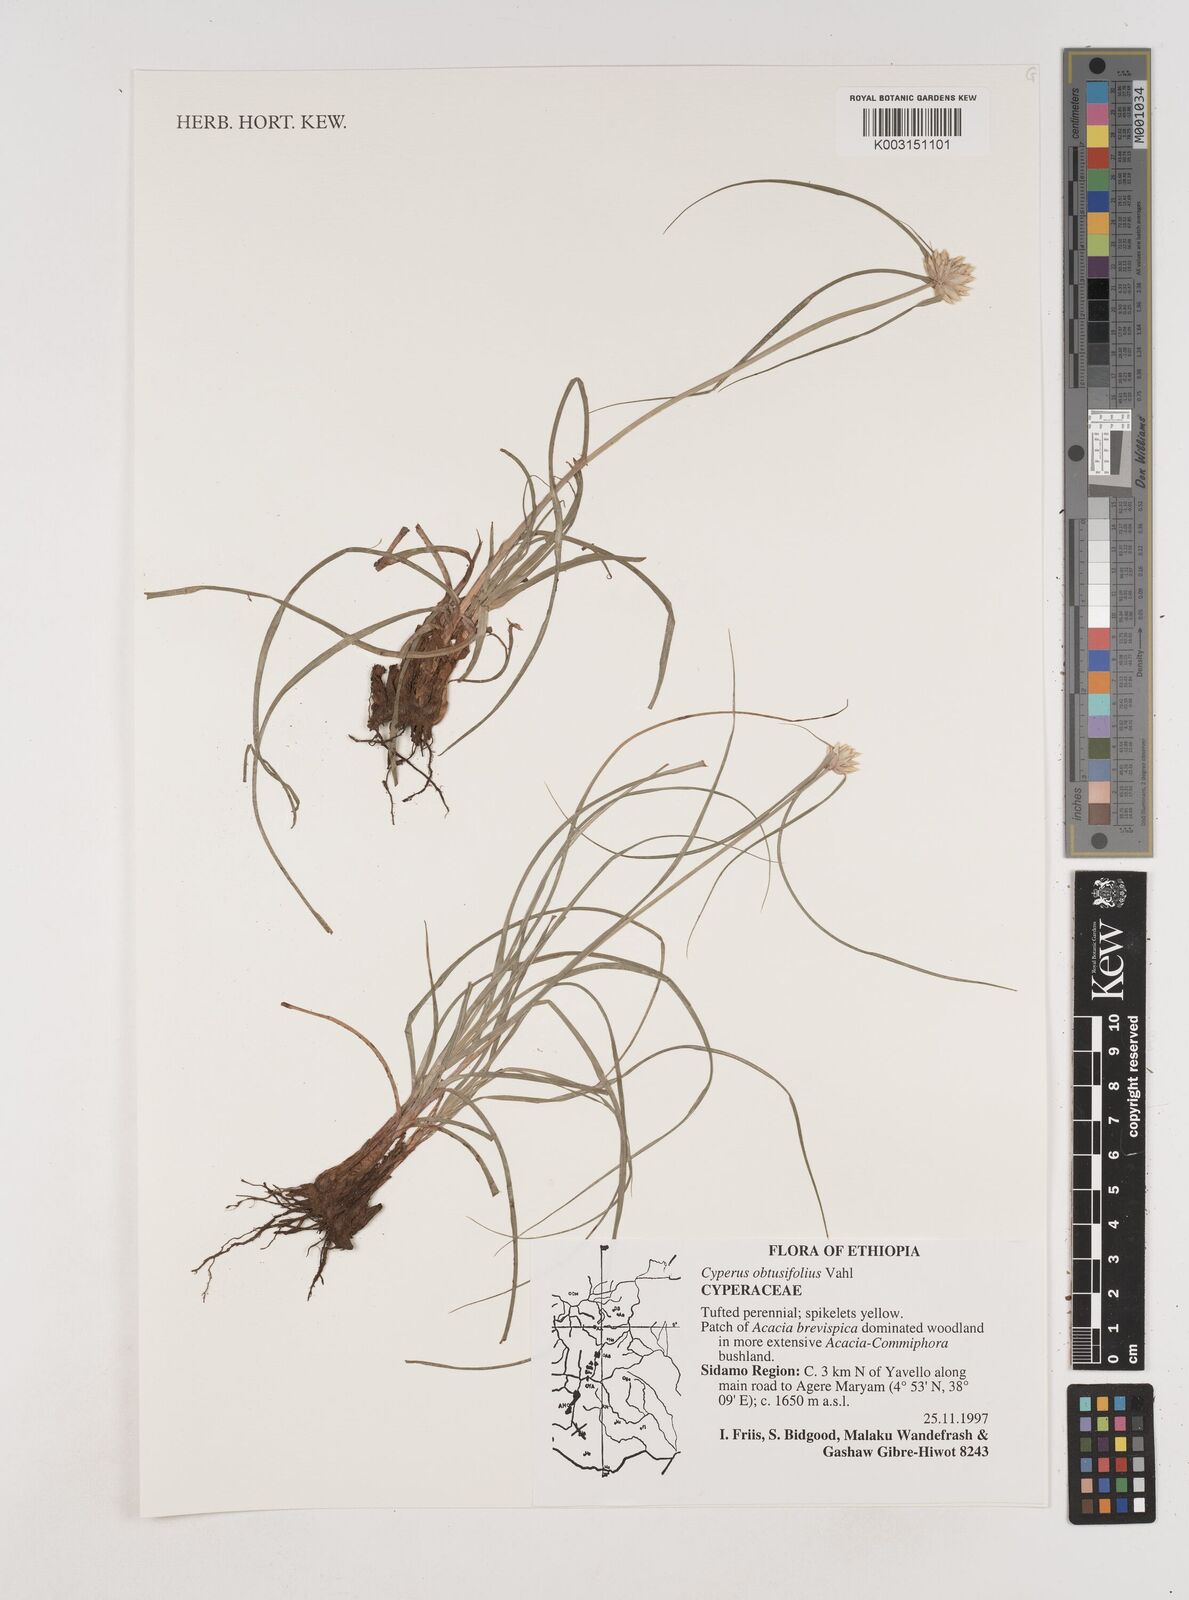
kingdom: Plantae
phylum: Tracheophyta
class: Liliopsida
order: Poales
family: Cyperaceae
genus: Cyperus
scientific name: Cyperus niveus
